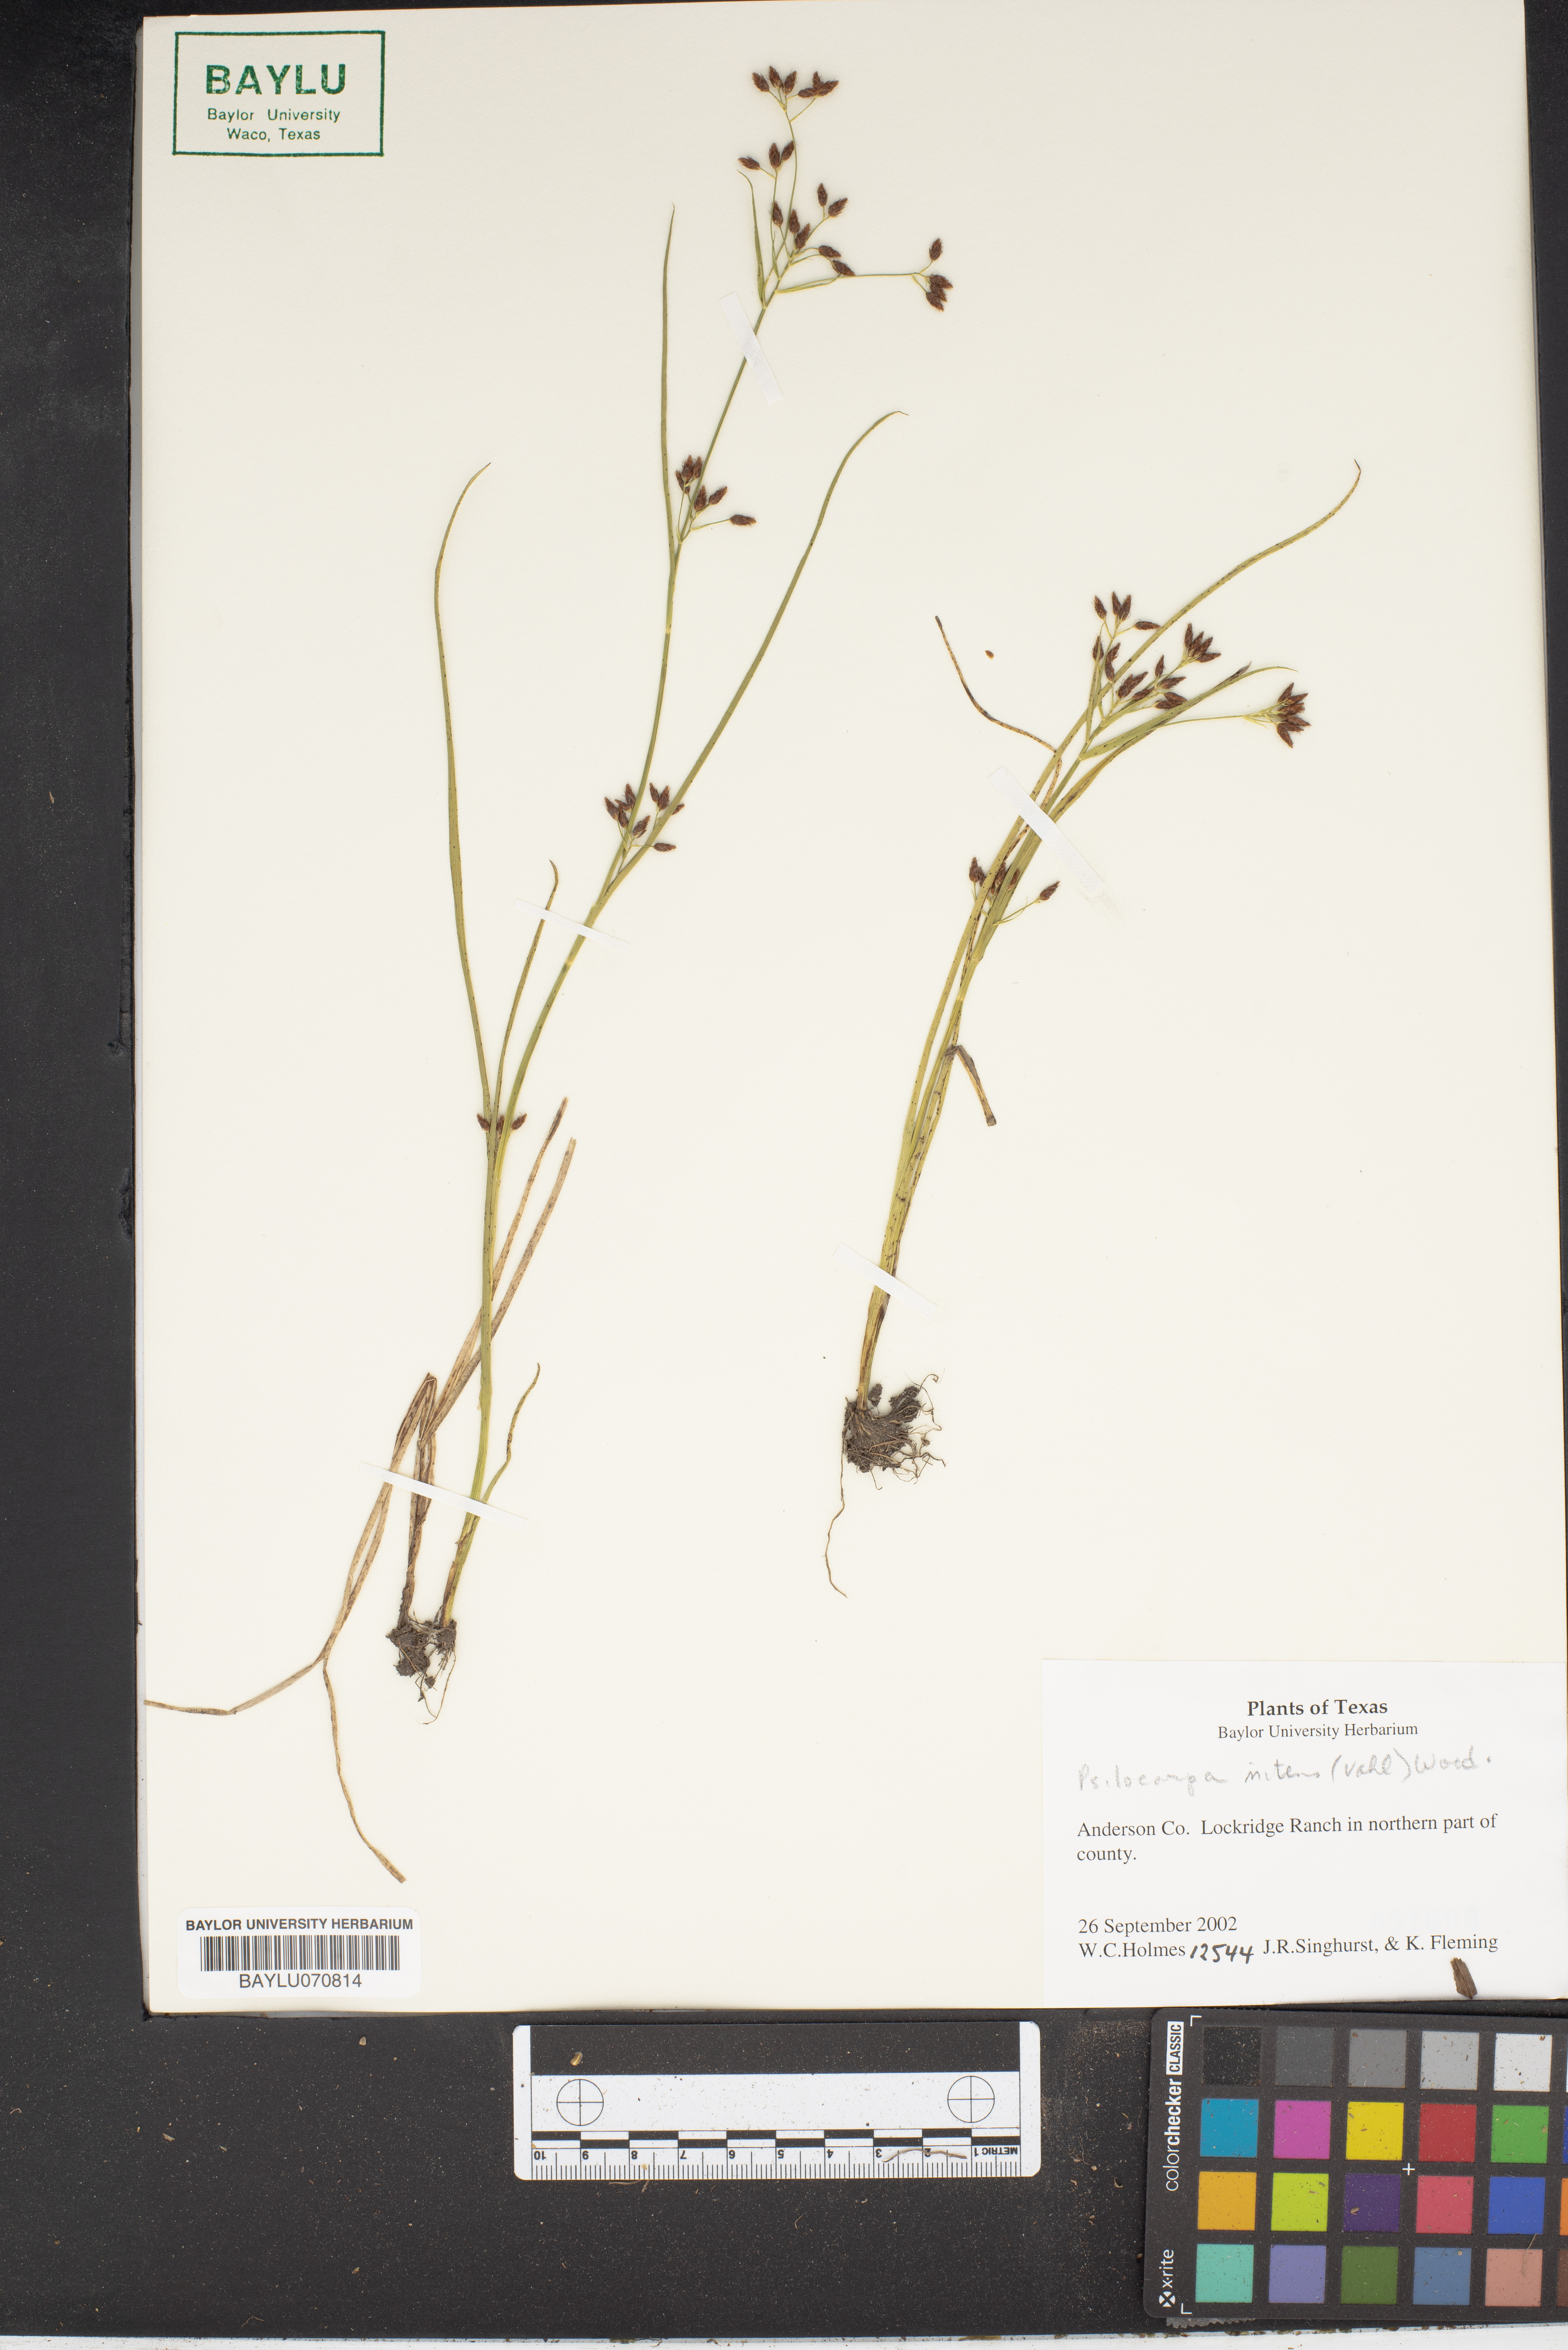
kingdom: Plantae
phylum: Tracheophyta
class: Liliopsida
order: Poales
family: Cyperaceae
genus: Rhynchospora
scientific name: Rhynchospora nitens
